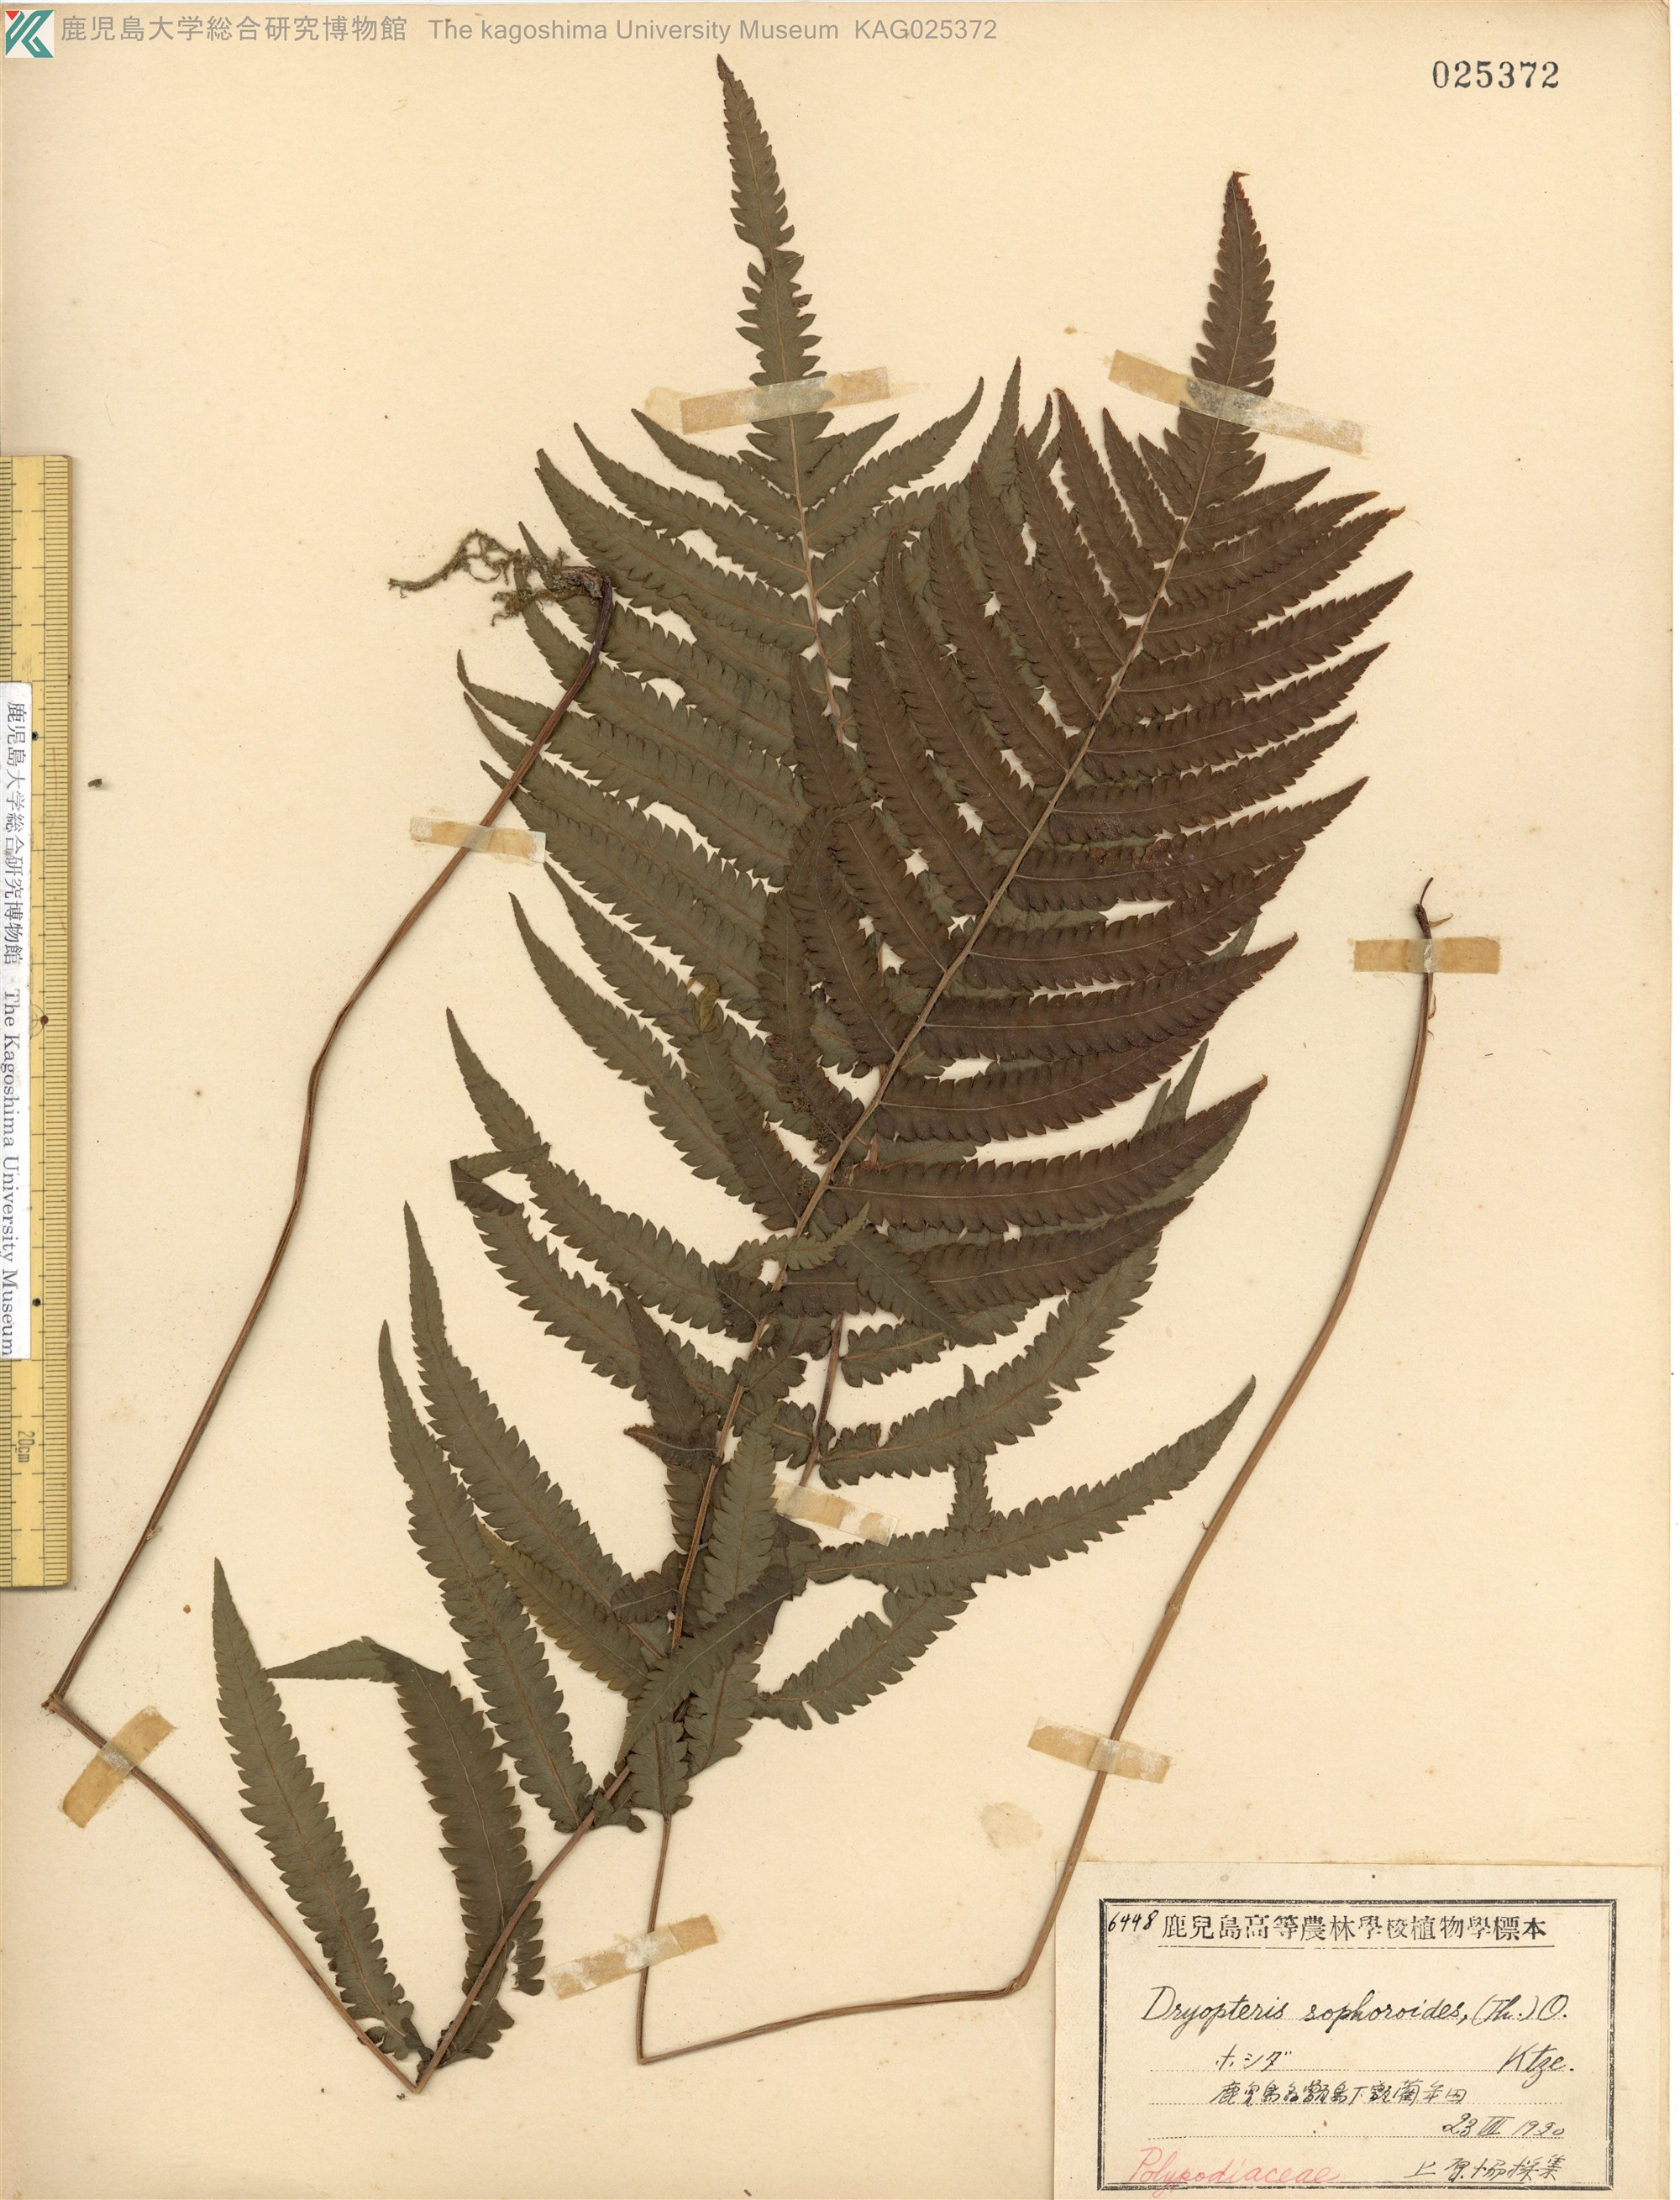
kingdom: Plantae
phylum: Tracheophyta
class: Polypodiopsida
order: Polypodiales
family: Thelypteridaceae
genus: Christella
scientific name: Christella acuminata
